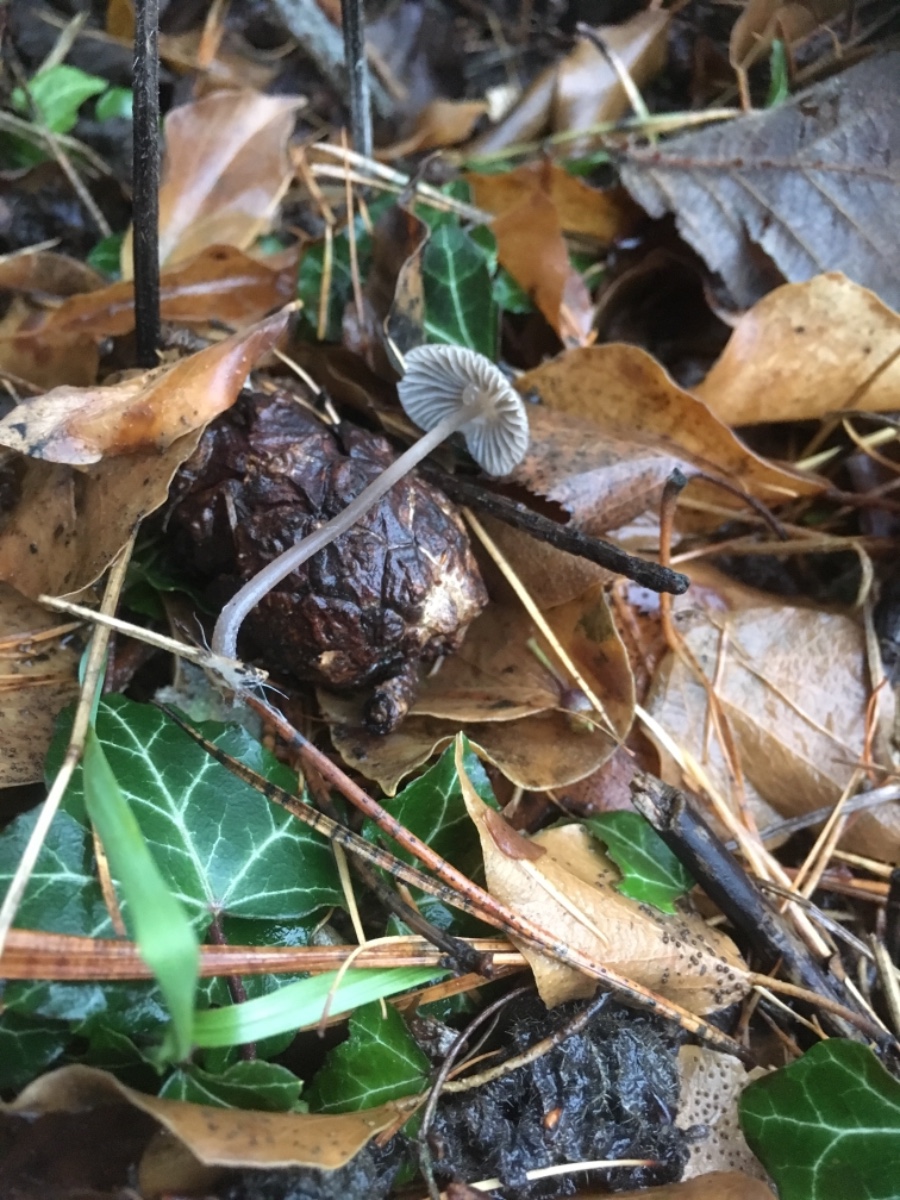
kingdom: Fungi
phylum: Basidiomycota
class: Agaricomycetes
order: Agaricales
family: Mycenaceae
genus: Mycena
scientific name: Mycena
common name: huesvamp
